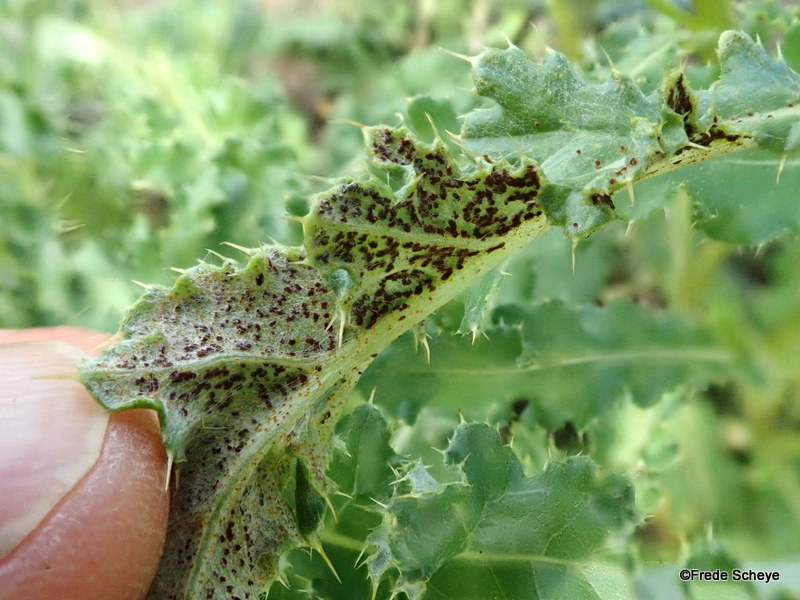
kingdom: Fungi
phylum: Basidiomycota
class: Pucciniomycetes
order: Pucciniales
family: Pucciniaceae
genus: Puccinia
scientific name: Puccinia suaveolens
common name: tidsel-tvecellerust
